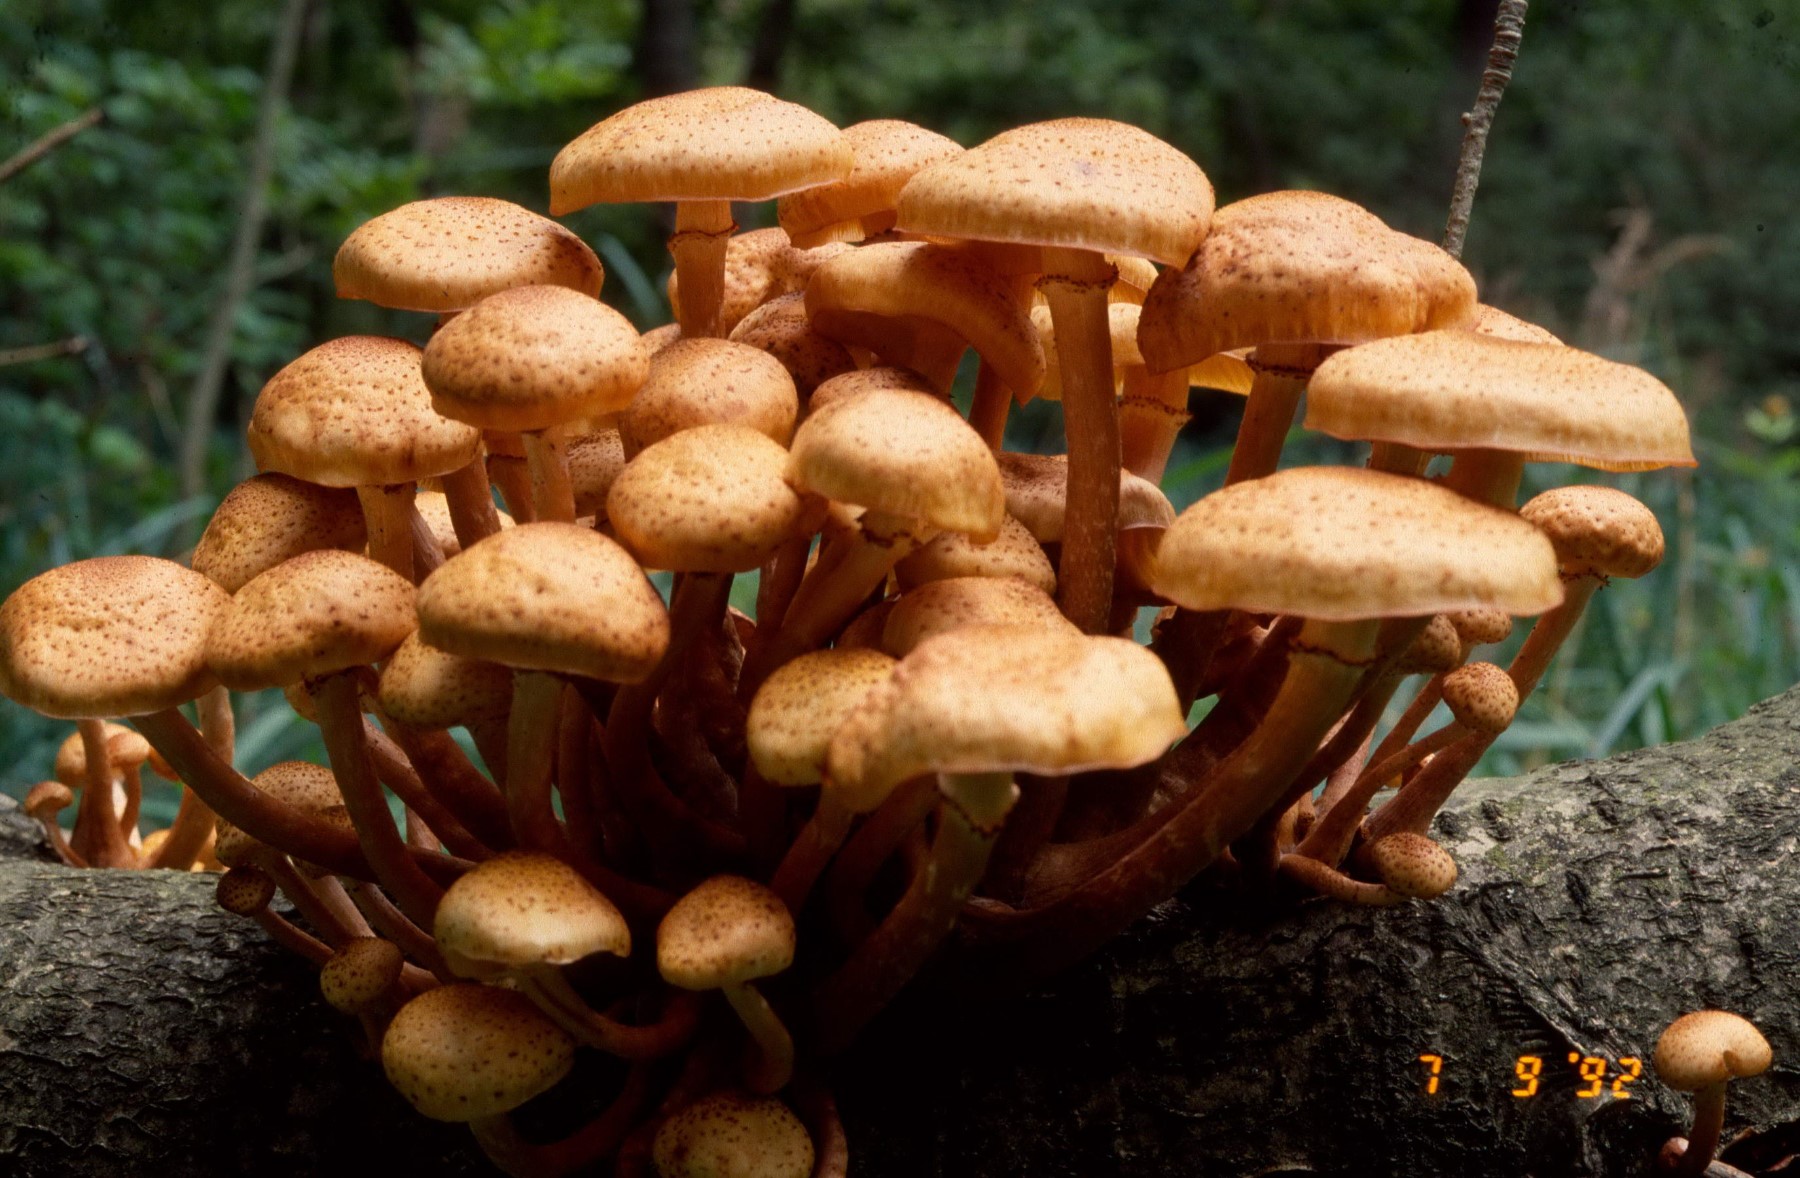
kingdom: Fungi
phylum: Basidiomycota
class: Agaricomycetes
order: Agaricales
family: Physalacriaceae
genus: Armillaria
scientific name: Armillaria
